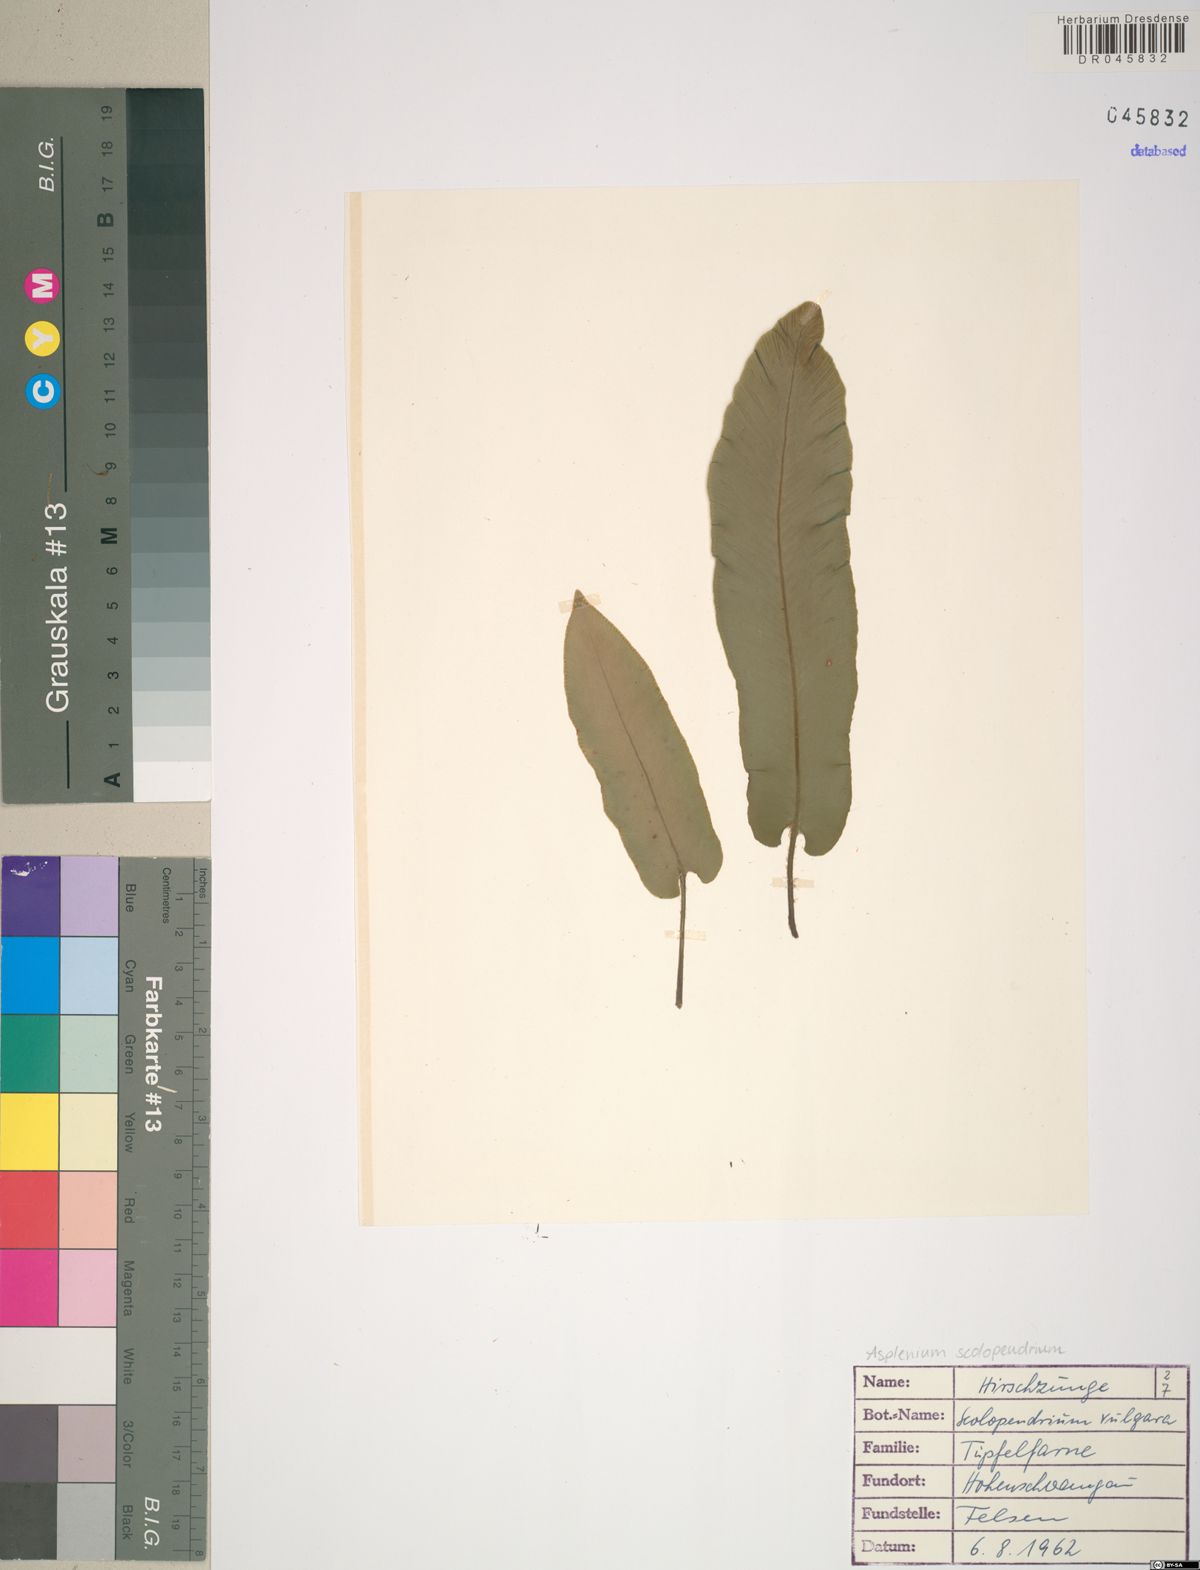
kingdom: Plantae
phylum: Tracheophyta
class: Polypodiopsida
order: Polypodiales
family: Aspleniaceae
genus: Asplenium
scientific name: Asplenium scolopendrium
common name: Hart's-tongue fern
